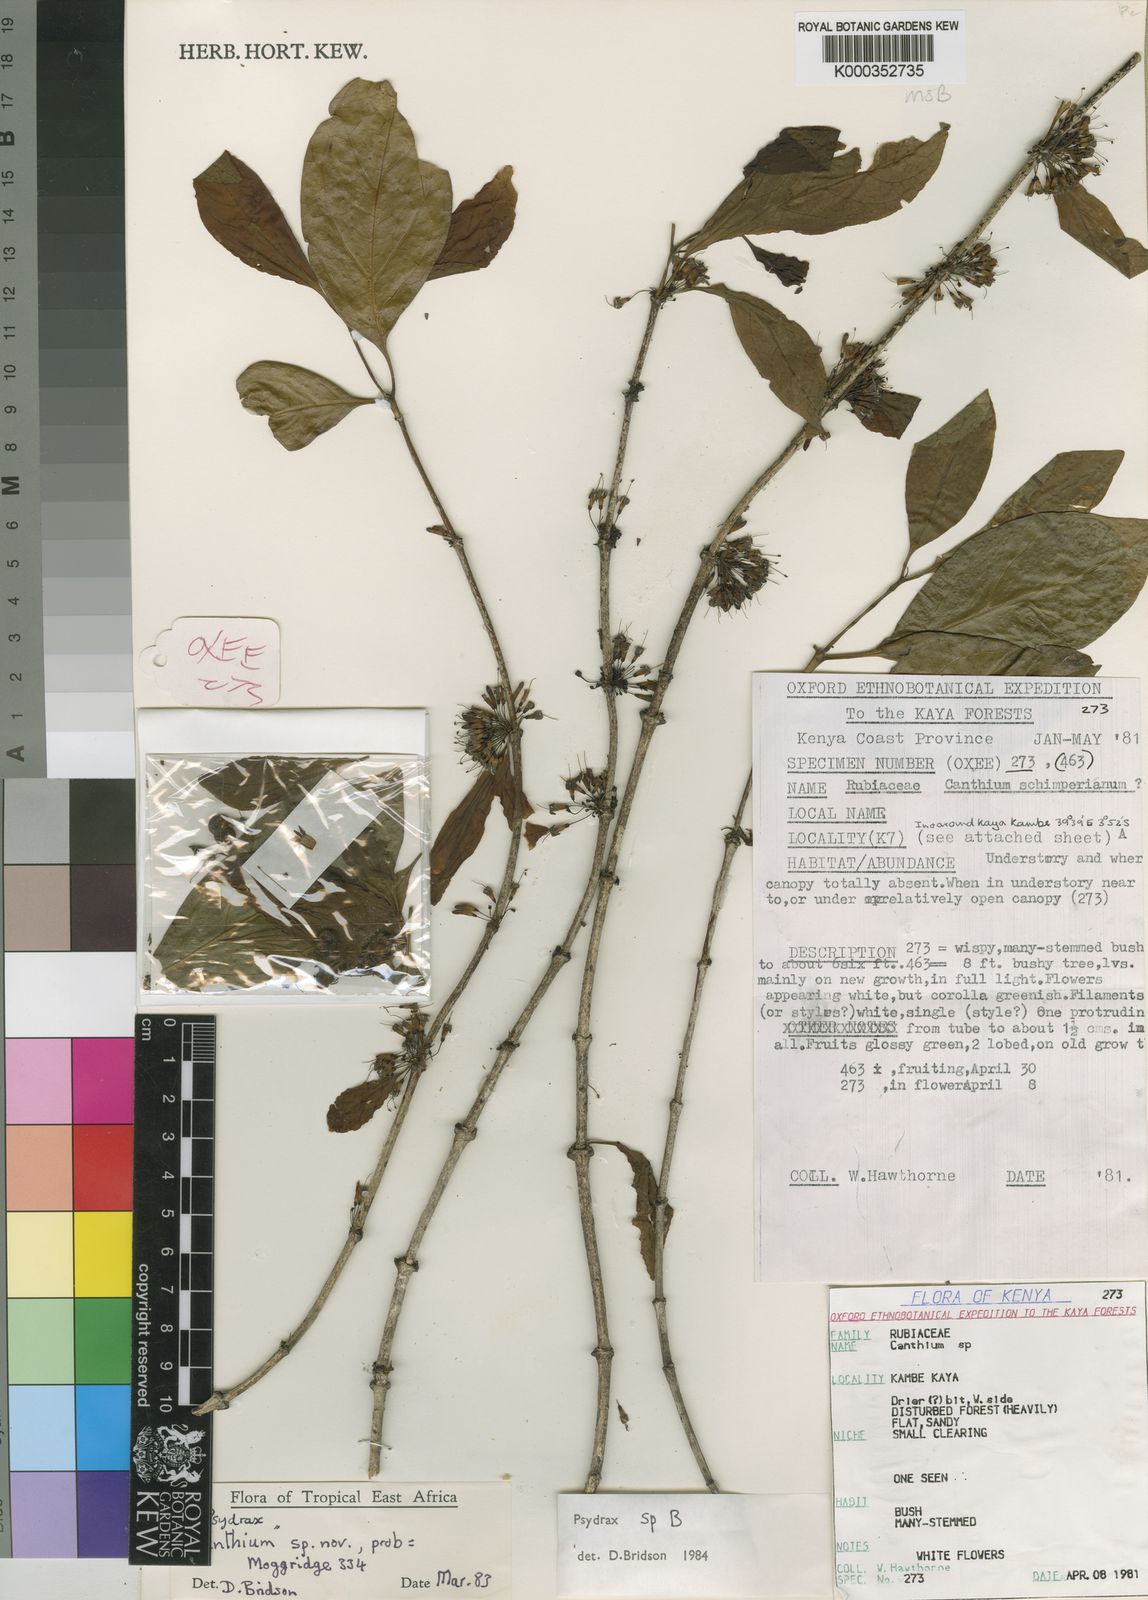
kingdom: Plantae
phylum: Tracheophyta
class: Magnoliopsida
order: Gentianales
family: Rubiaceae
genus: Psydrax
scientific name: Psydrax robertsoniae
